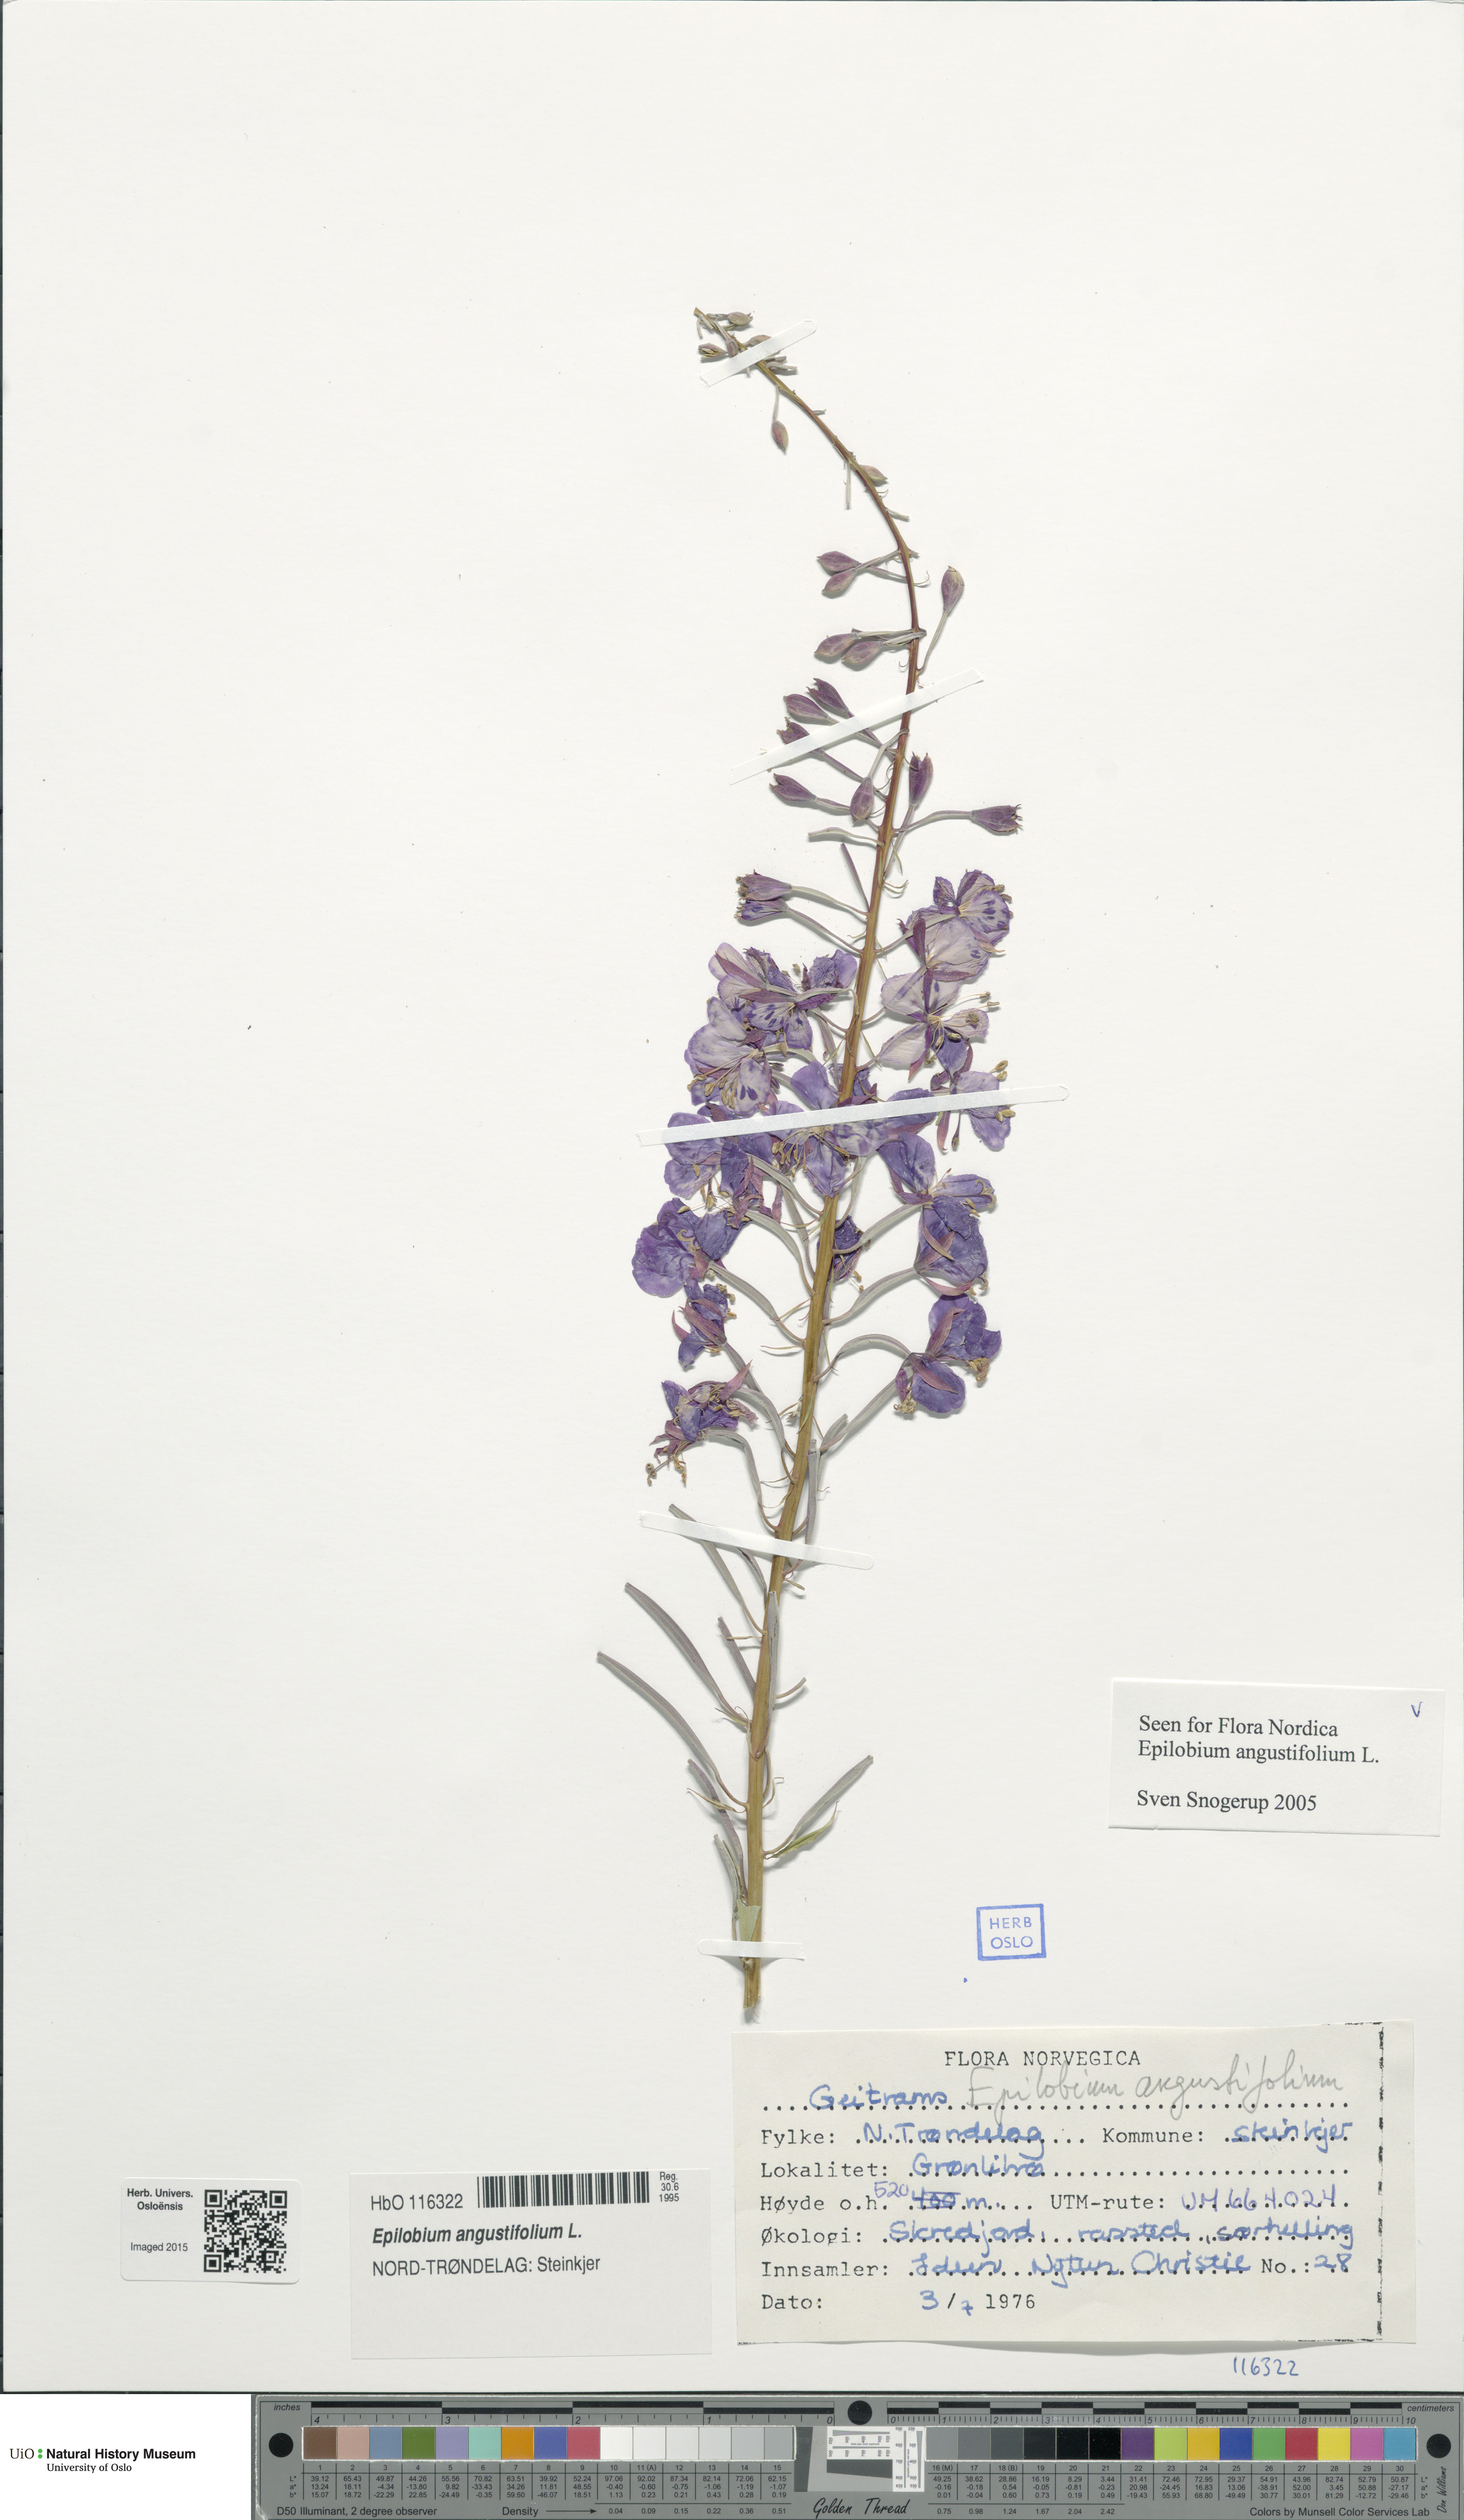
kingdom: Plantae
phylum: Tracheophyta
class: Magnoliopsida
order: Myrtales
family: Onagraceae
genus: Chamaenerion
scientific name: Chamaenerion angustifolium
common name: Fireweed
